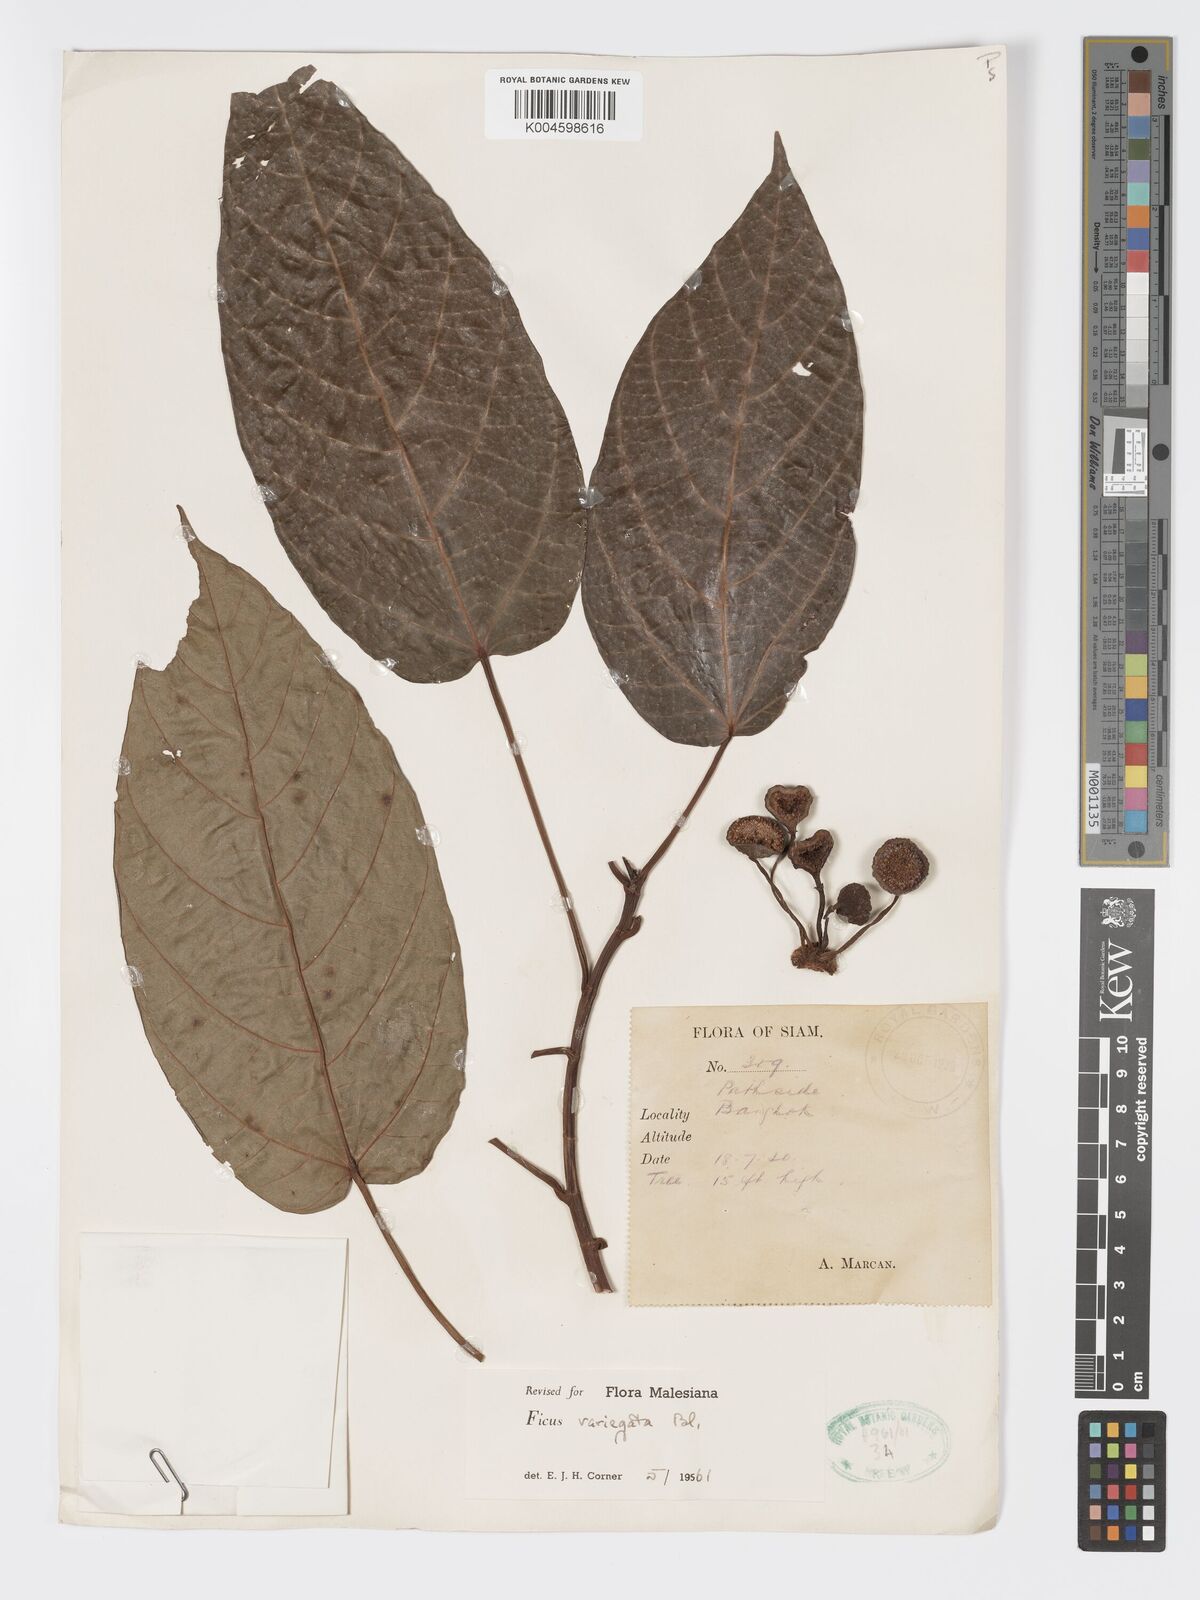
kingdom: Plantae
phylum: Tracheophyta
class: Magnoliopsida
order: Rosales
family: Moraceae
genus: Ficus
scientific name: Ficus variegata
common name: Variegated fig
